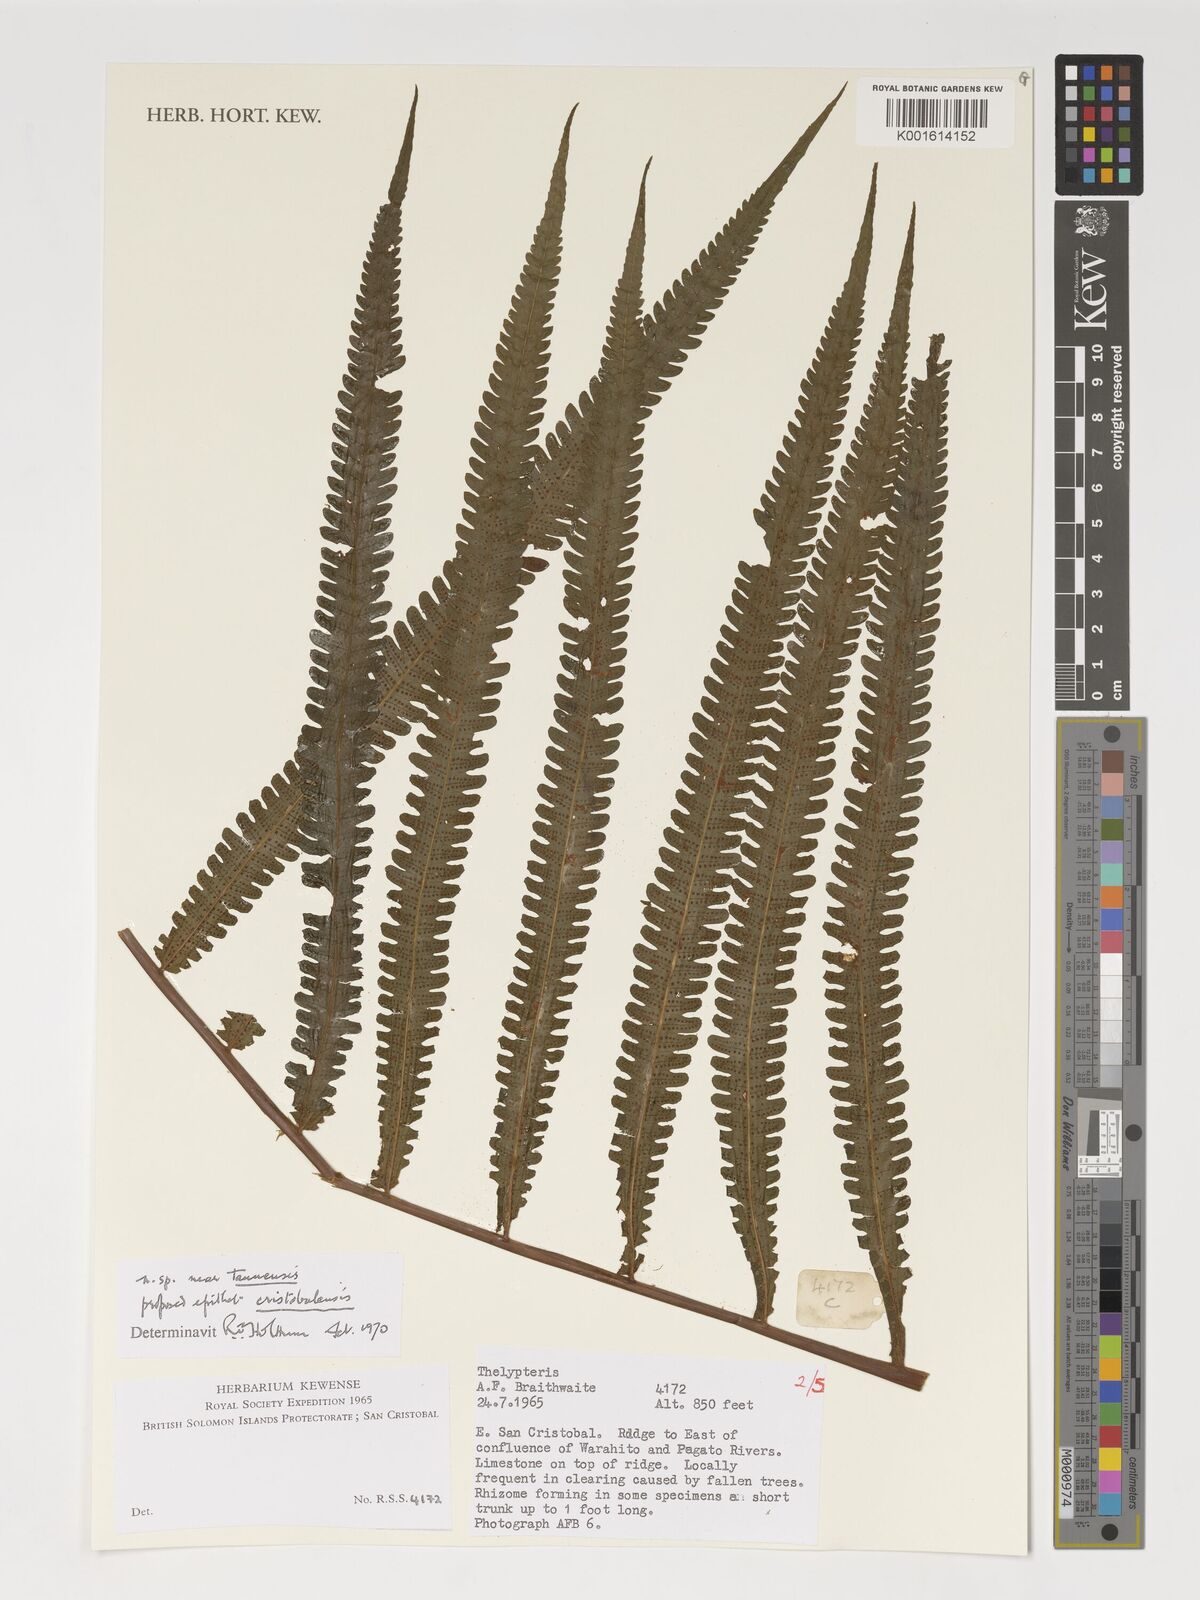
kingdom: Plantae
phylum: Tracheophyta
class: Polypodiopsida
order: Polypodiales
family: Thelypteridaceae
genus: Thelypteris
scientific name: Thelypteris
